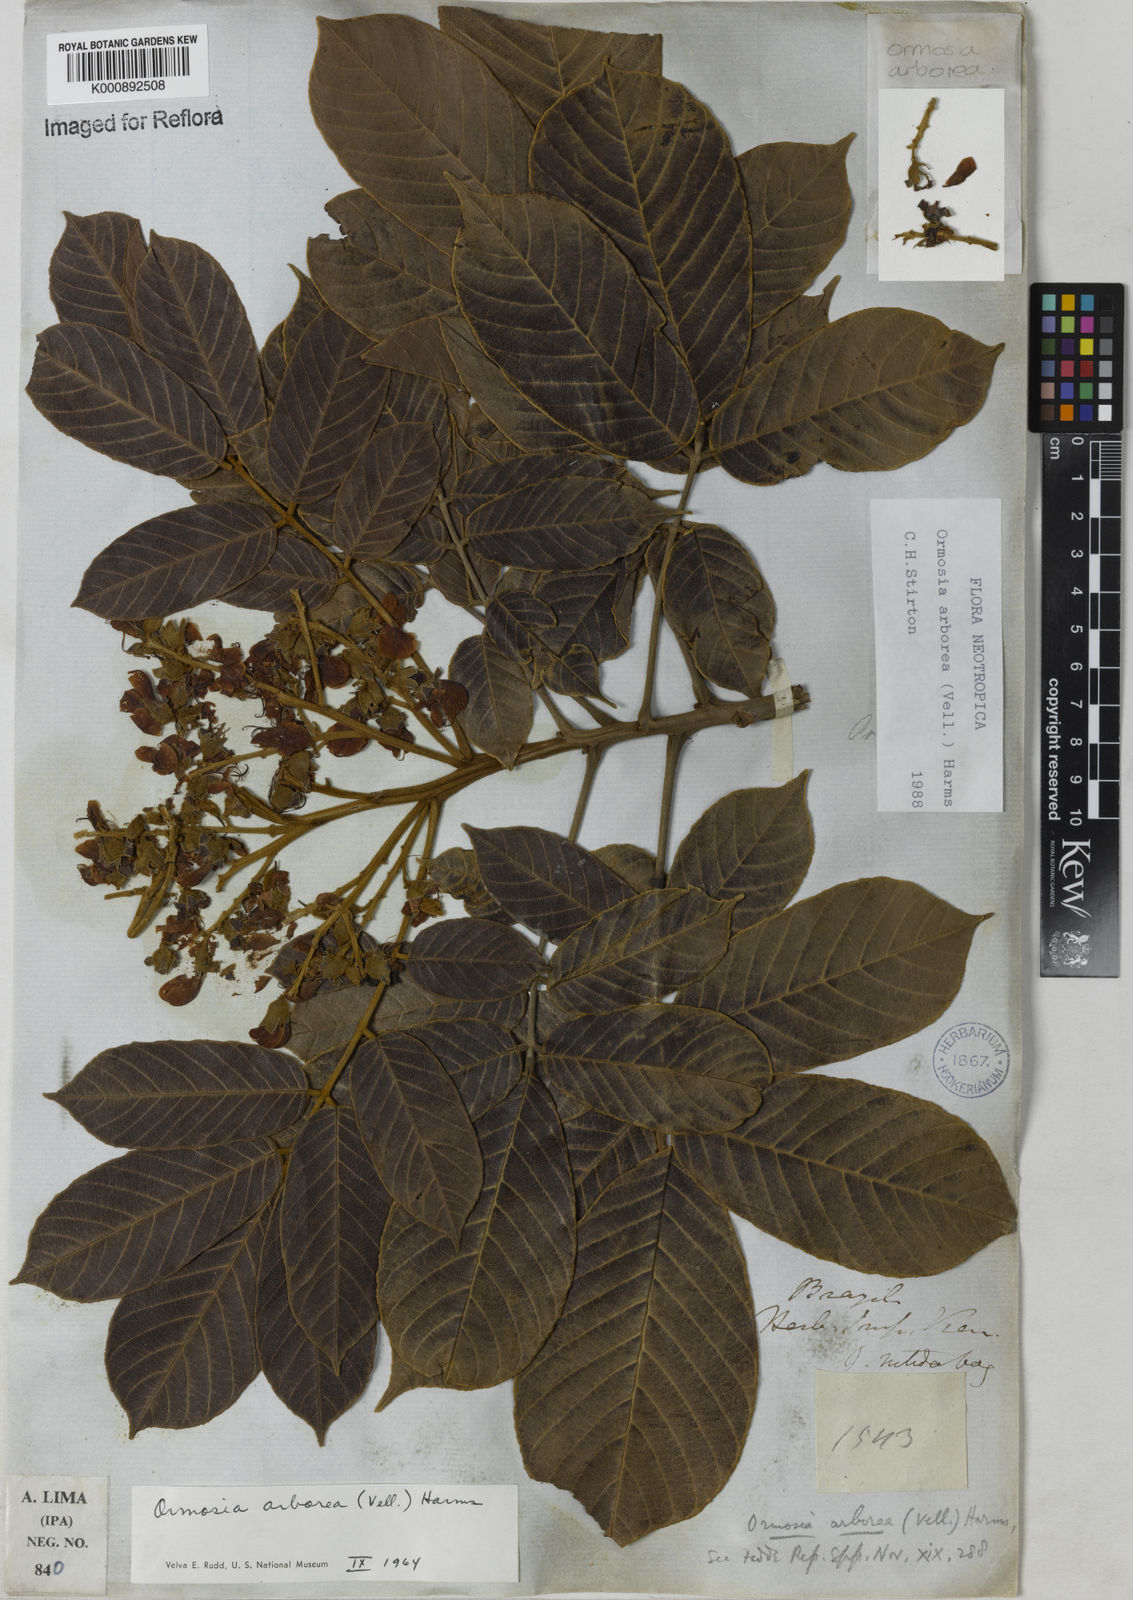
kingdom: Plantae
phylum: Tracheophyta
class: Magnoliopsida
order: Fabales
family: Fabaceae
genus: Ormosia
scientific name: Ormosia arborea
